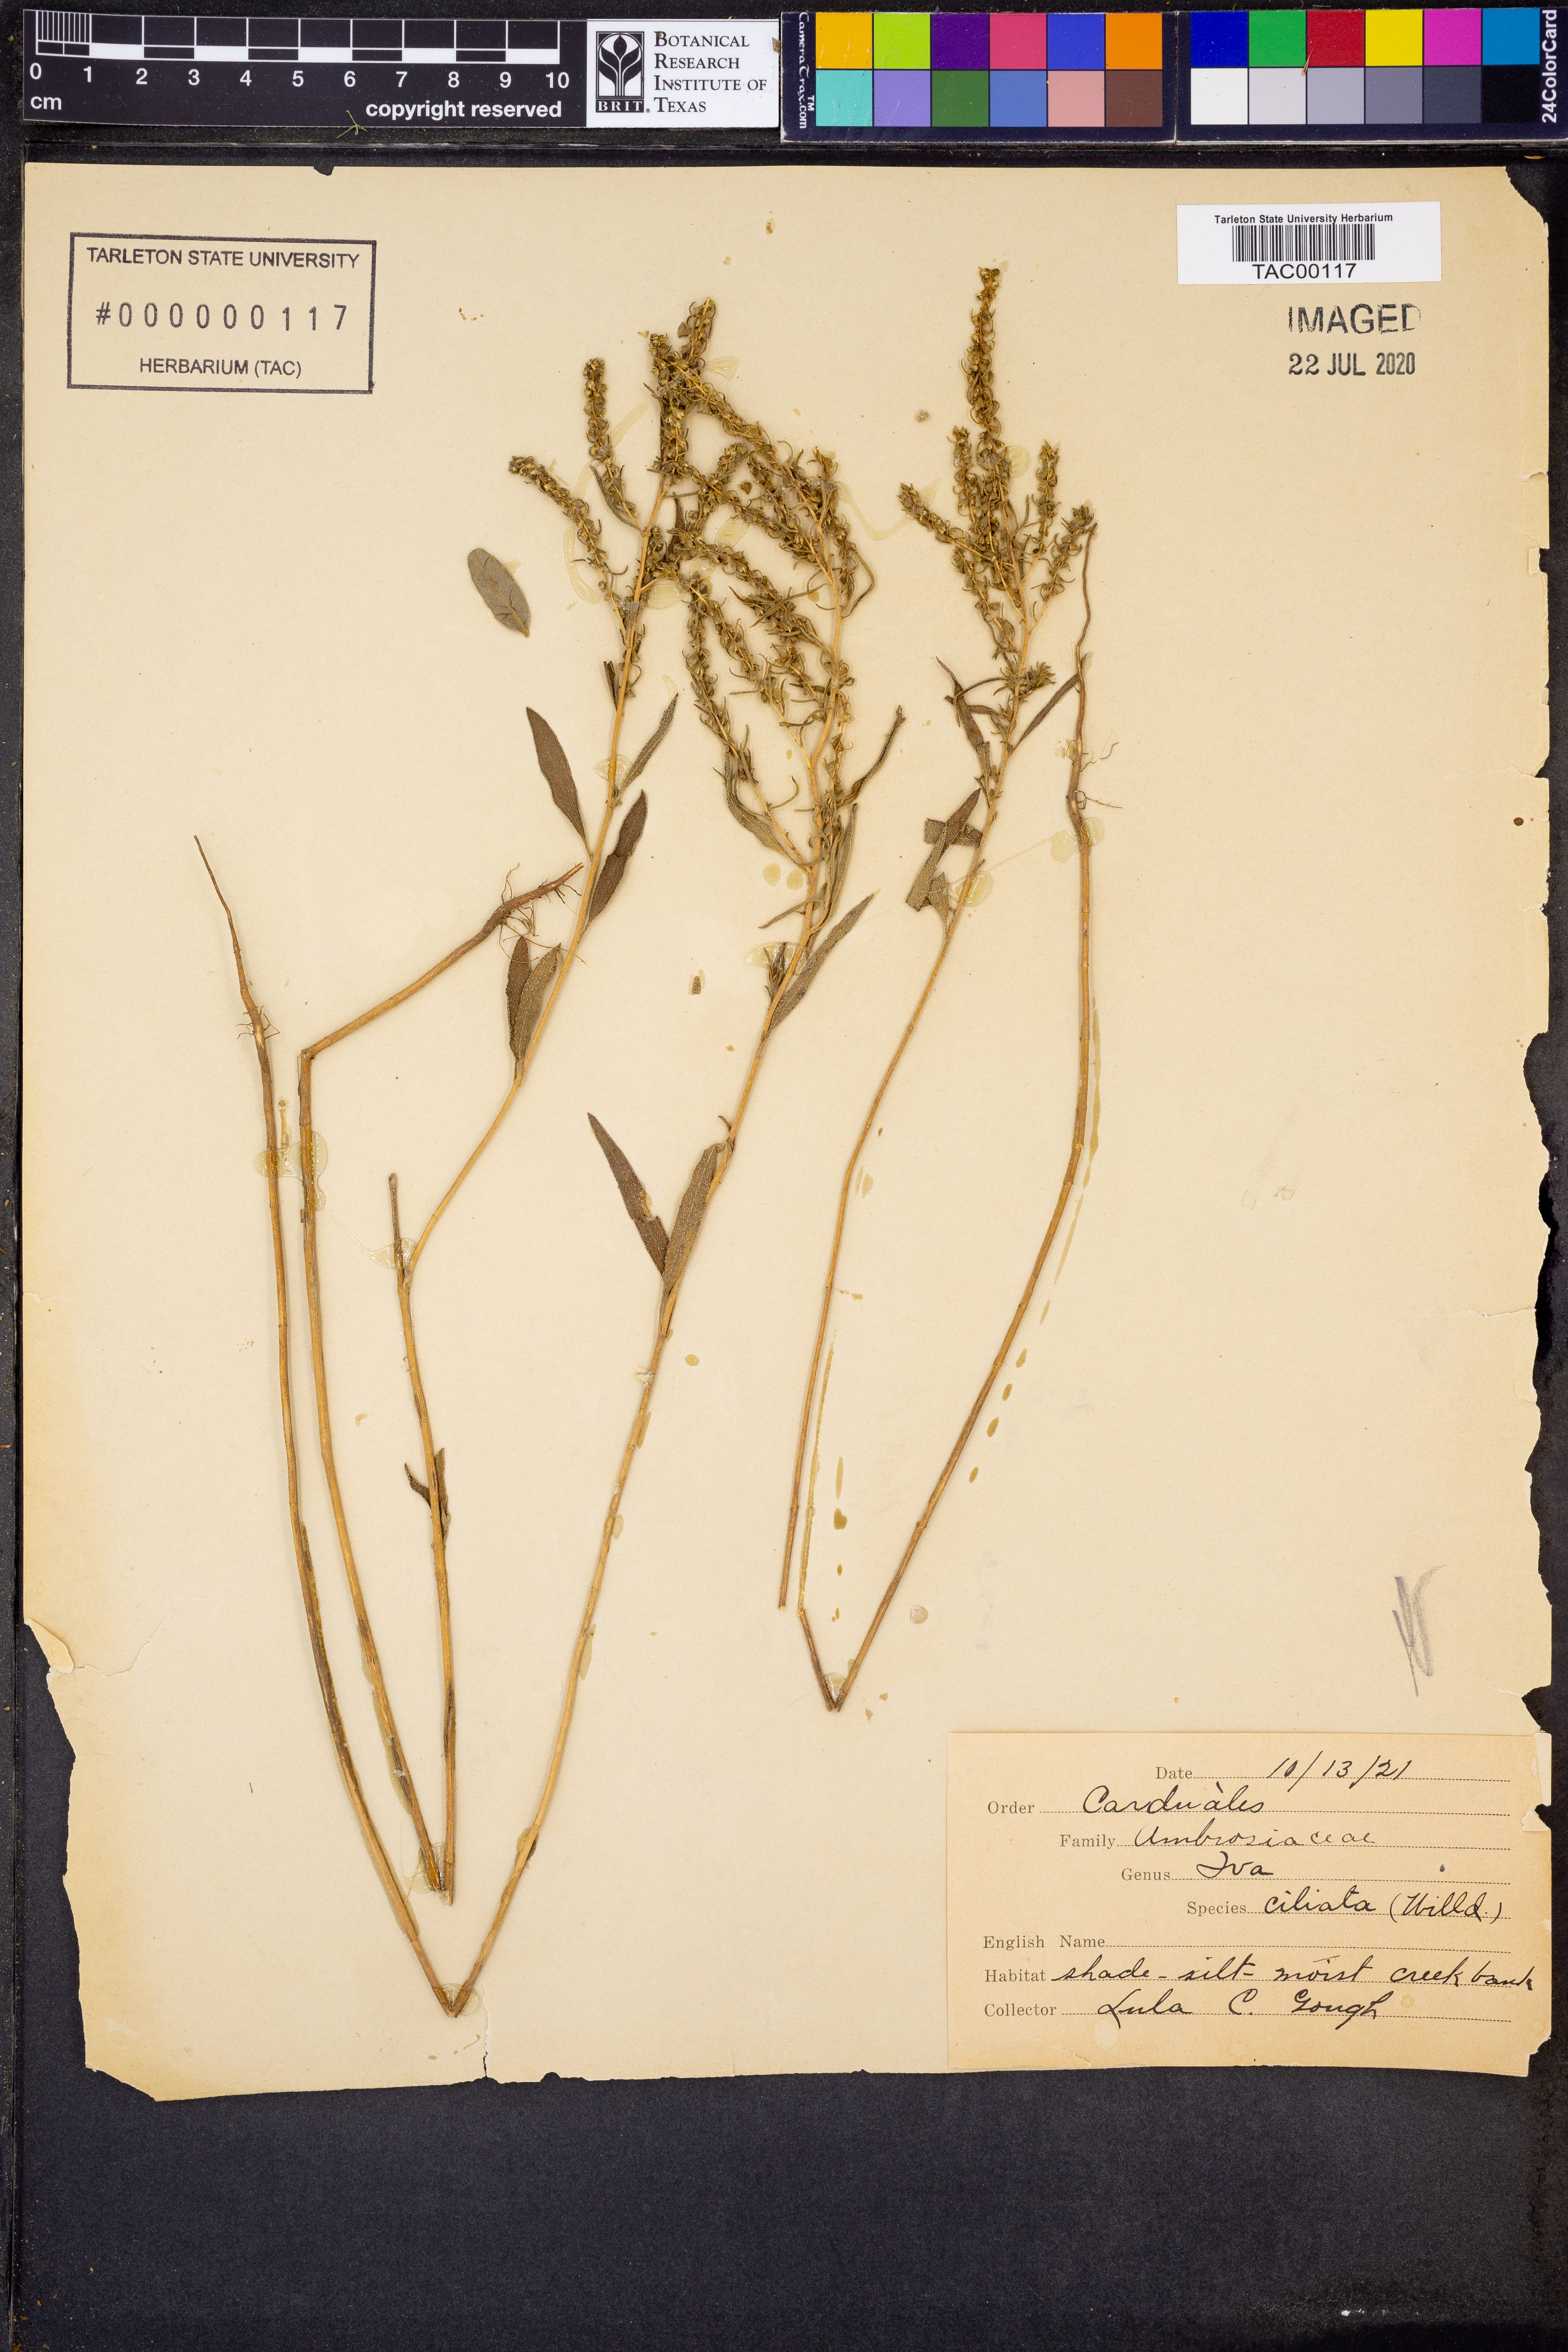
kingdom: Plantae
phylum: Tracheophyta
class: Magnoliopsida
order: Asterales
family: Asteraceae
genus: Iva
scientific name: Iva annua
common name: Marsh-elder
